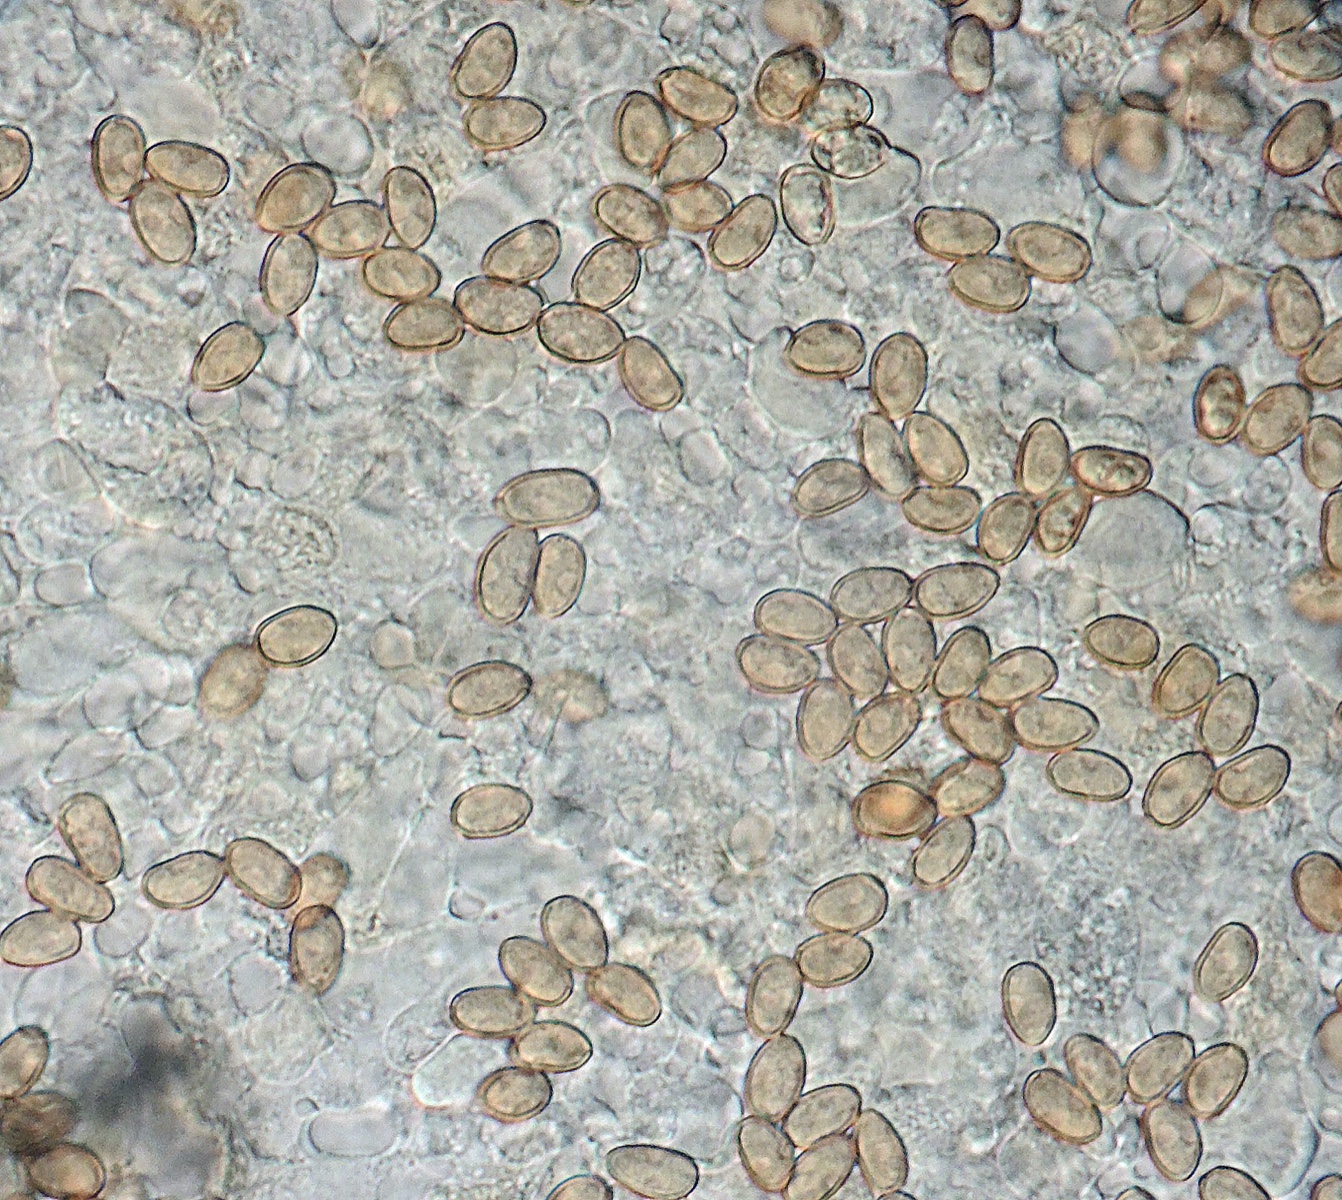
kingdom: Fungi
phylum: Basidiomycota
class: Agaricomycetes
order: Agaricales
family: Inocybaceae
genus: Mallocybe
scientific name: Mallocybe leucoloma
